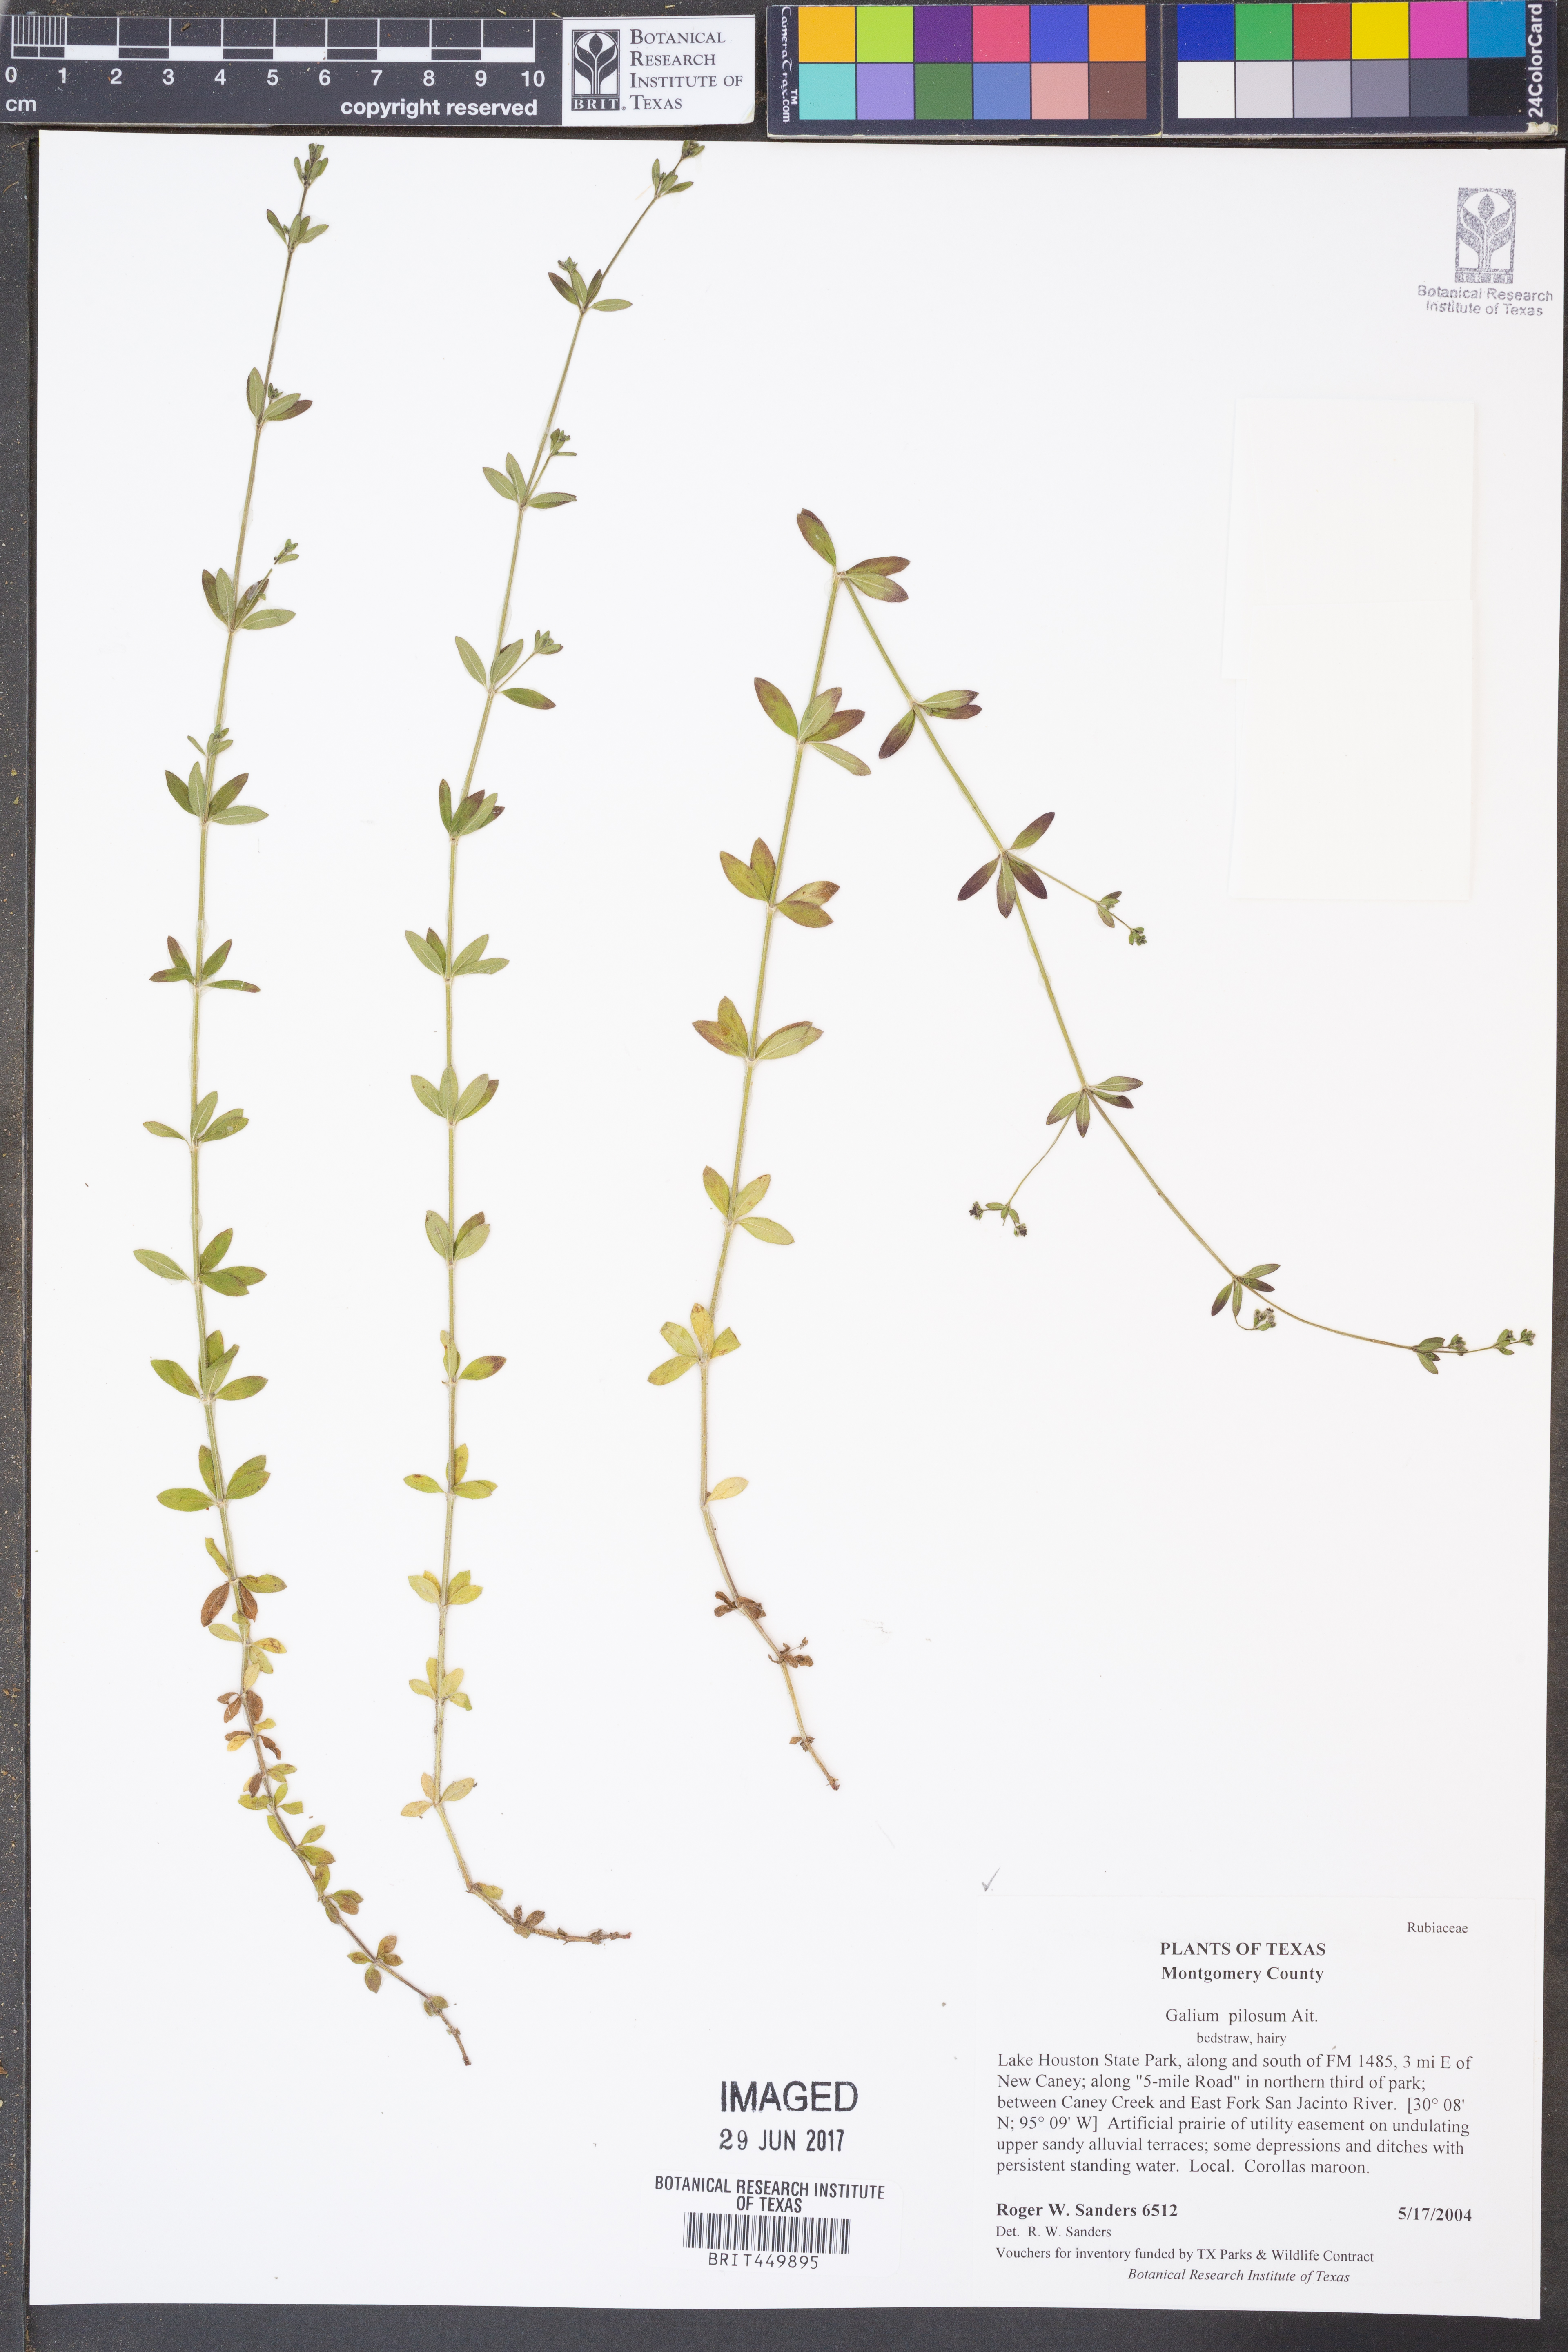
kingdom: Plantae
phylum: Tracheophyta
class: Magnoliopsida
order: Gentianales
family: Rubiaceae
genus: Galium
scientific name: Galium pilosum
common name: Hairy bedstraw
